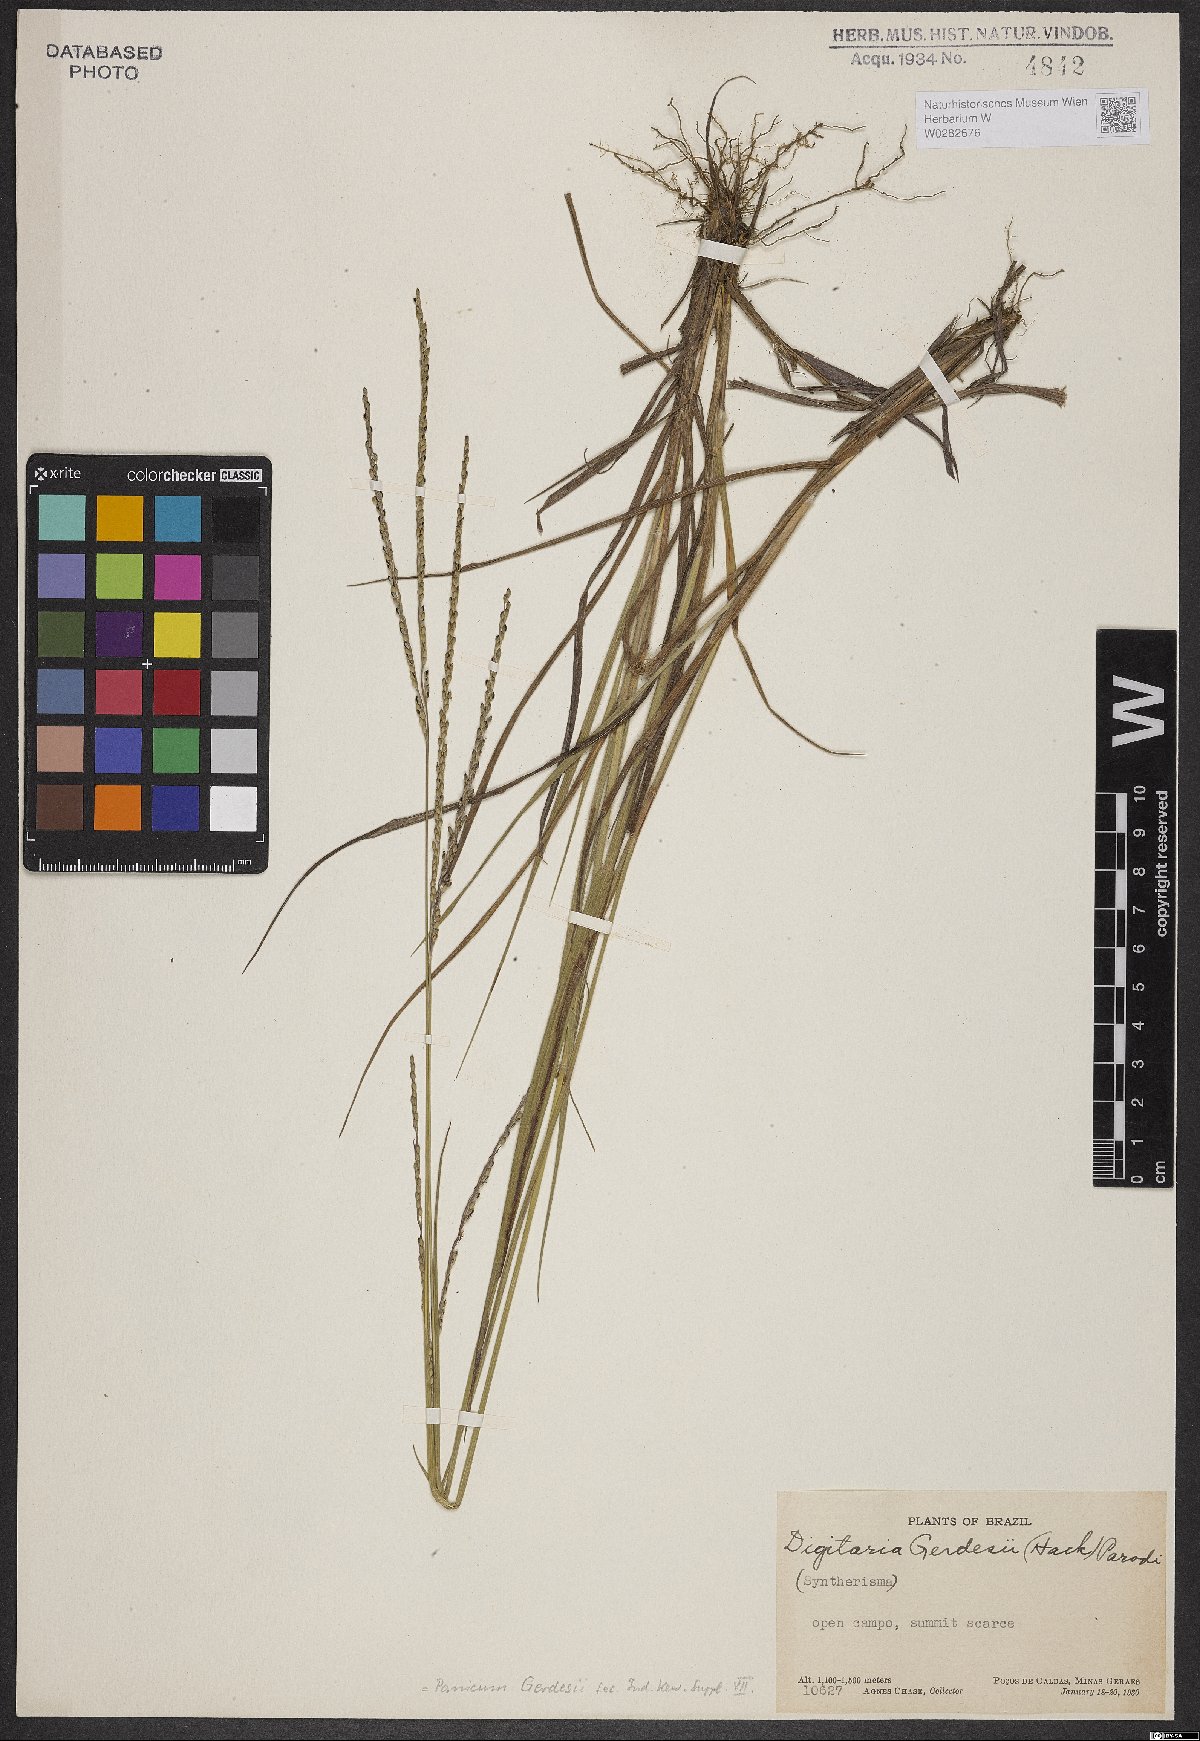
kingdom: Plantae
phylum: Tracheophyta
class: Liliopsida
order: Poales
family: Poaceae
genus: Digitaria
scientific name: Digitaria gerdesii
